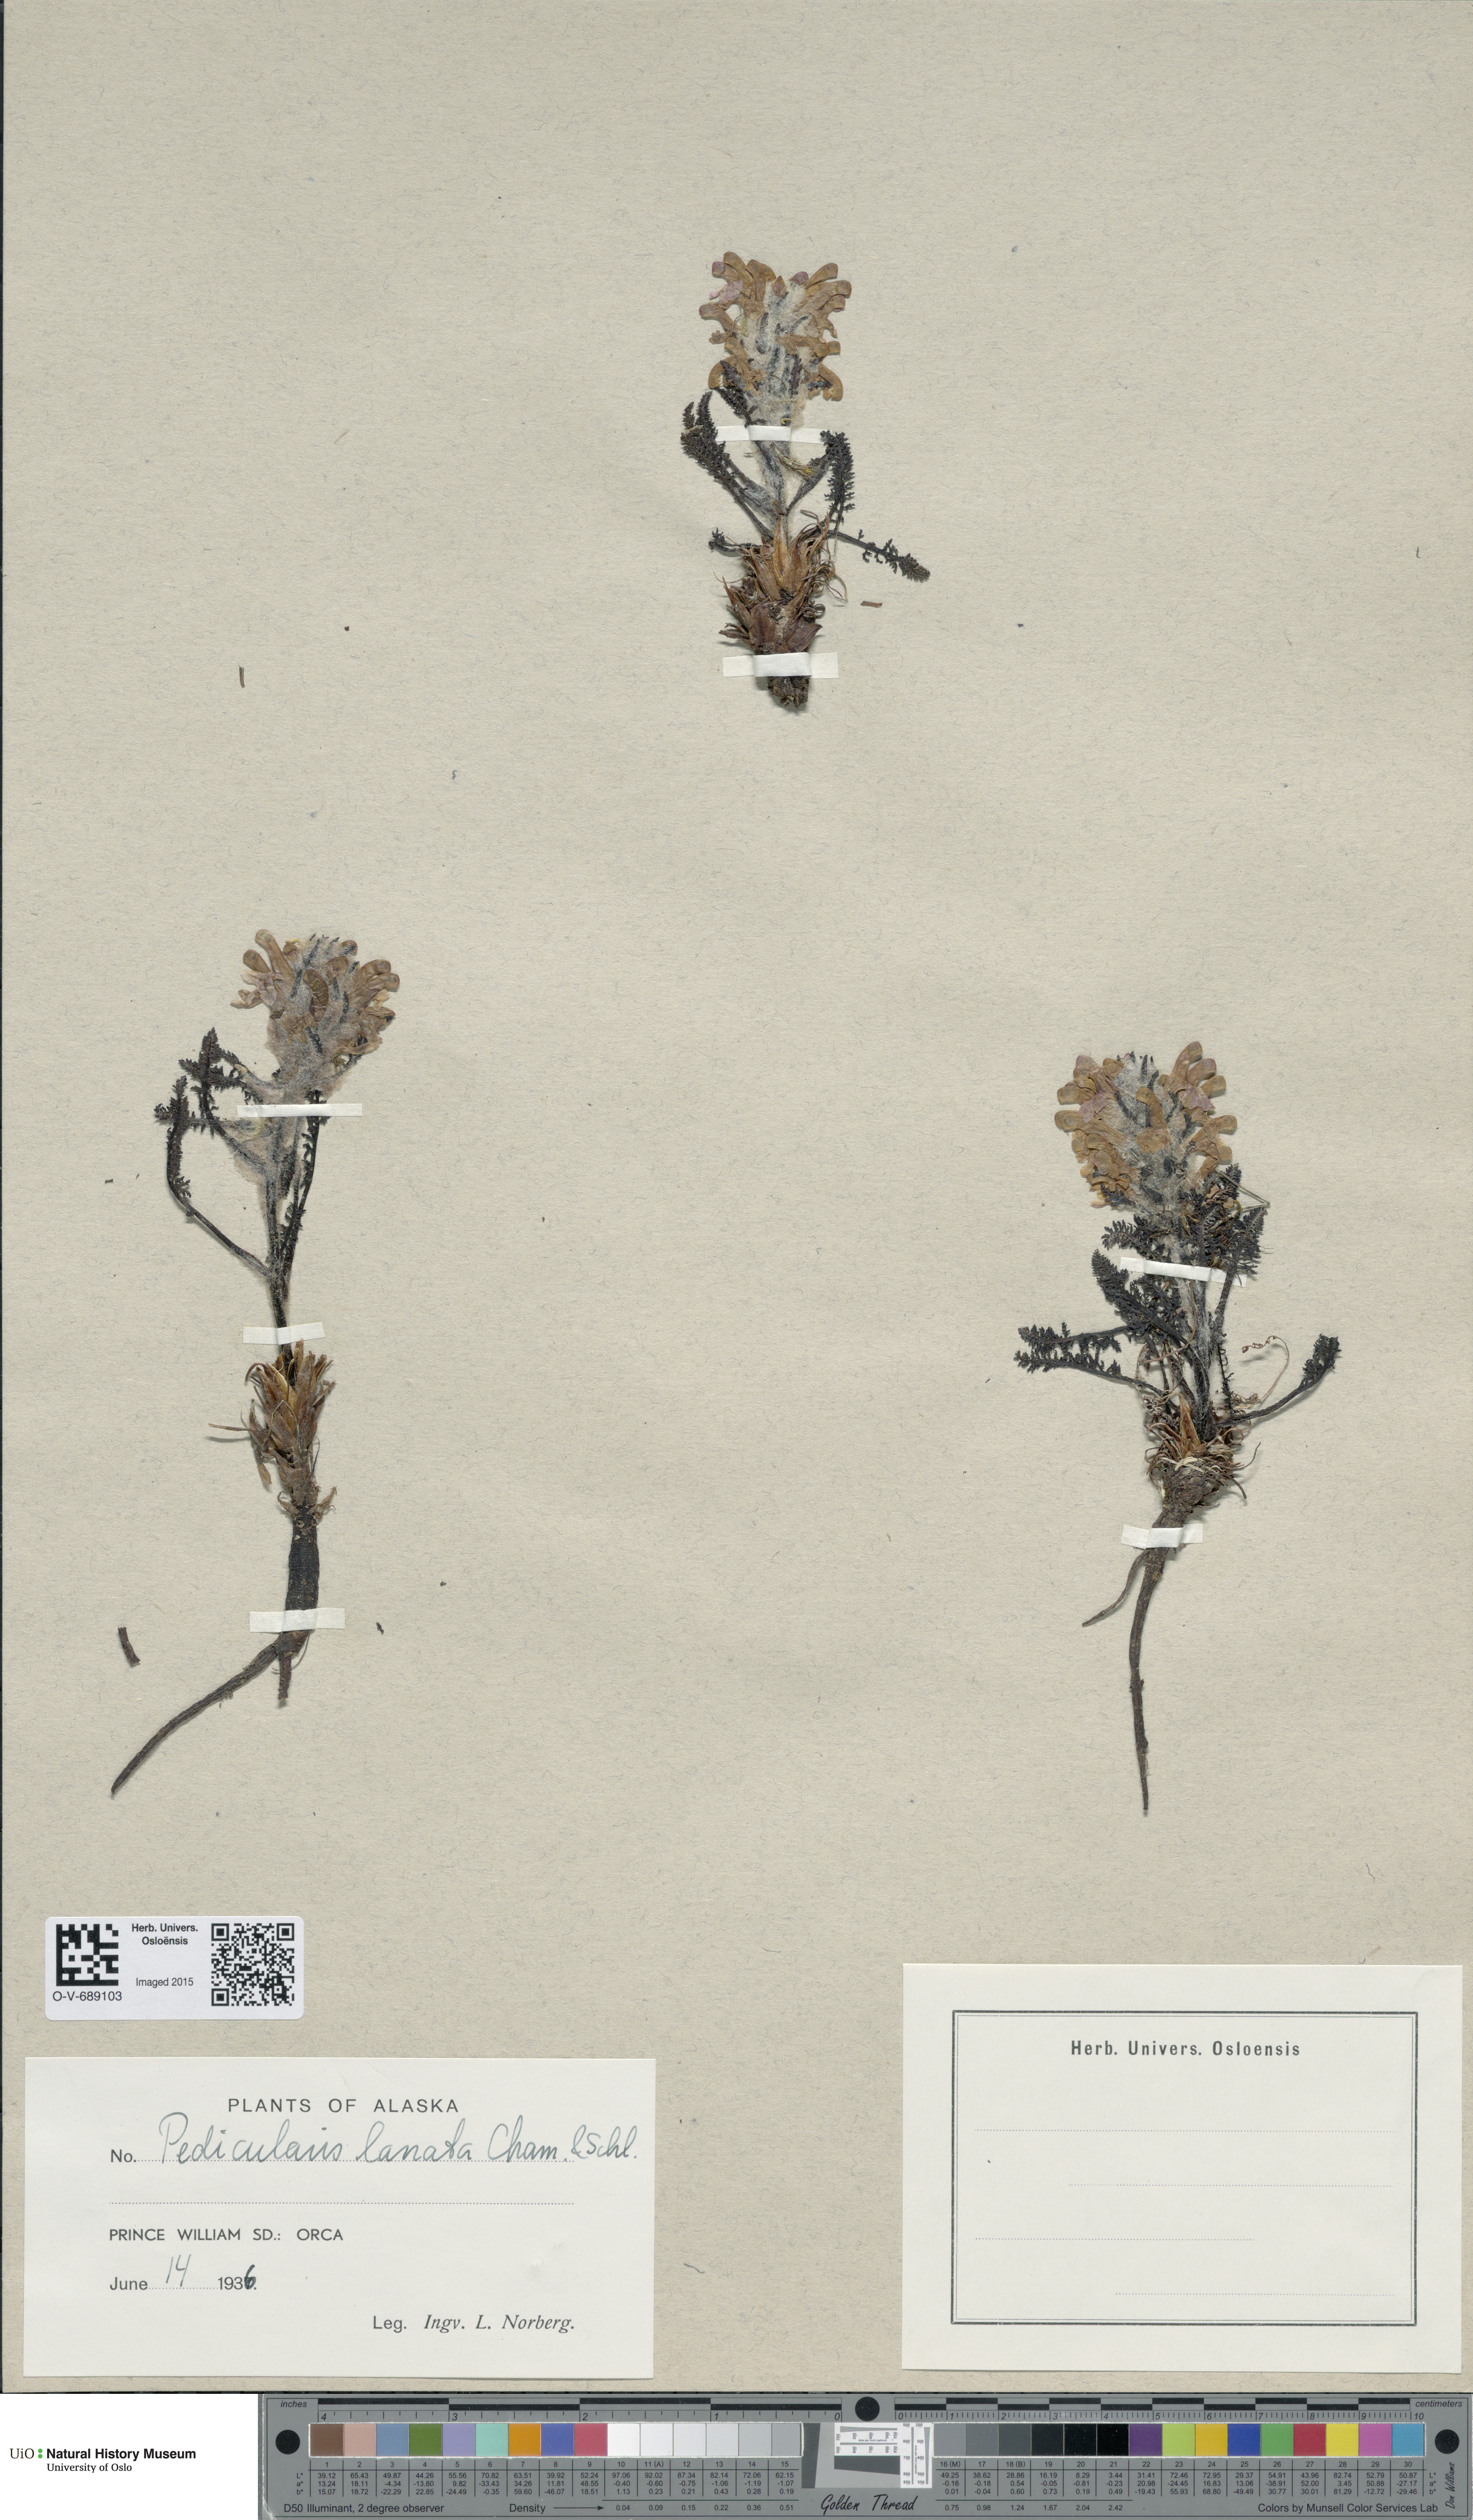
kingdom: Plantae
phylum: Tracheophyta
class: Magnoliopsida
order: Lamiales
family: Orobanchaceae
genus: Pedicularis
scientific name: Pedicularis lanata
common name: Woolly lousewort
